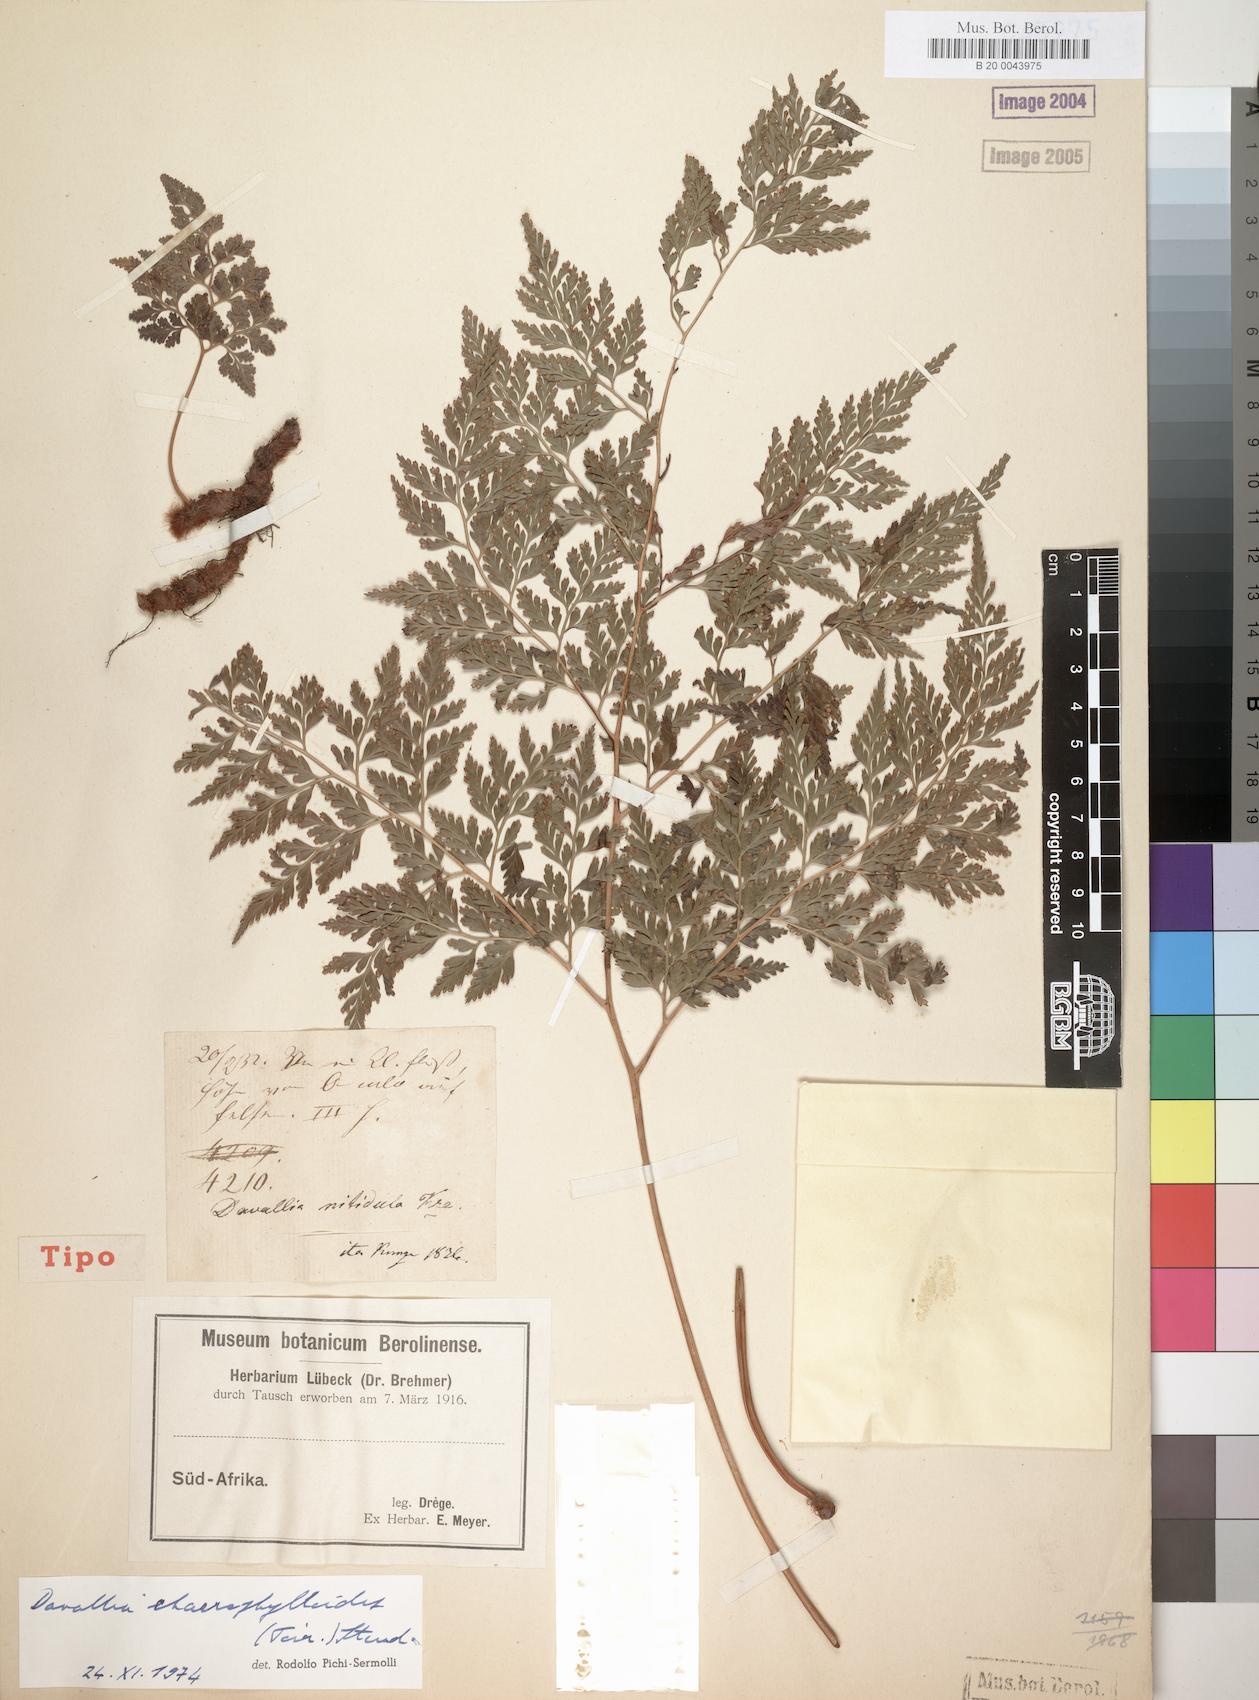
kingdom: Plantae
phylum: Tracheophyta
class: Polypodiopsida
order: Polypodiales
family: Davalliaceae
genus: Davallia
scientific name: Davallia chaerophylloides
